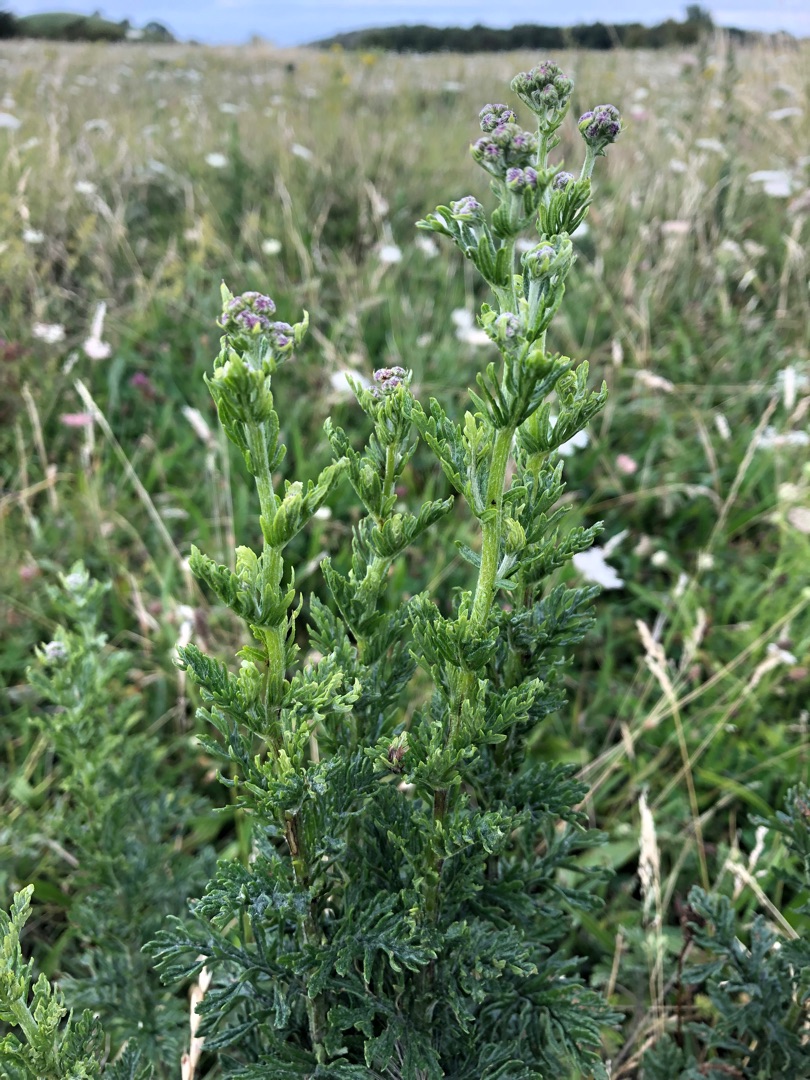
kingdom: Plantae
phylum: Tracheophyta
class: Magnoliopsida
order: Asterales
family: Asteraceae
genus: Jacobaea
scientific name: Jacobaea erucifolia
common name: Smalfliget brandbæger
